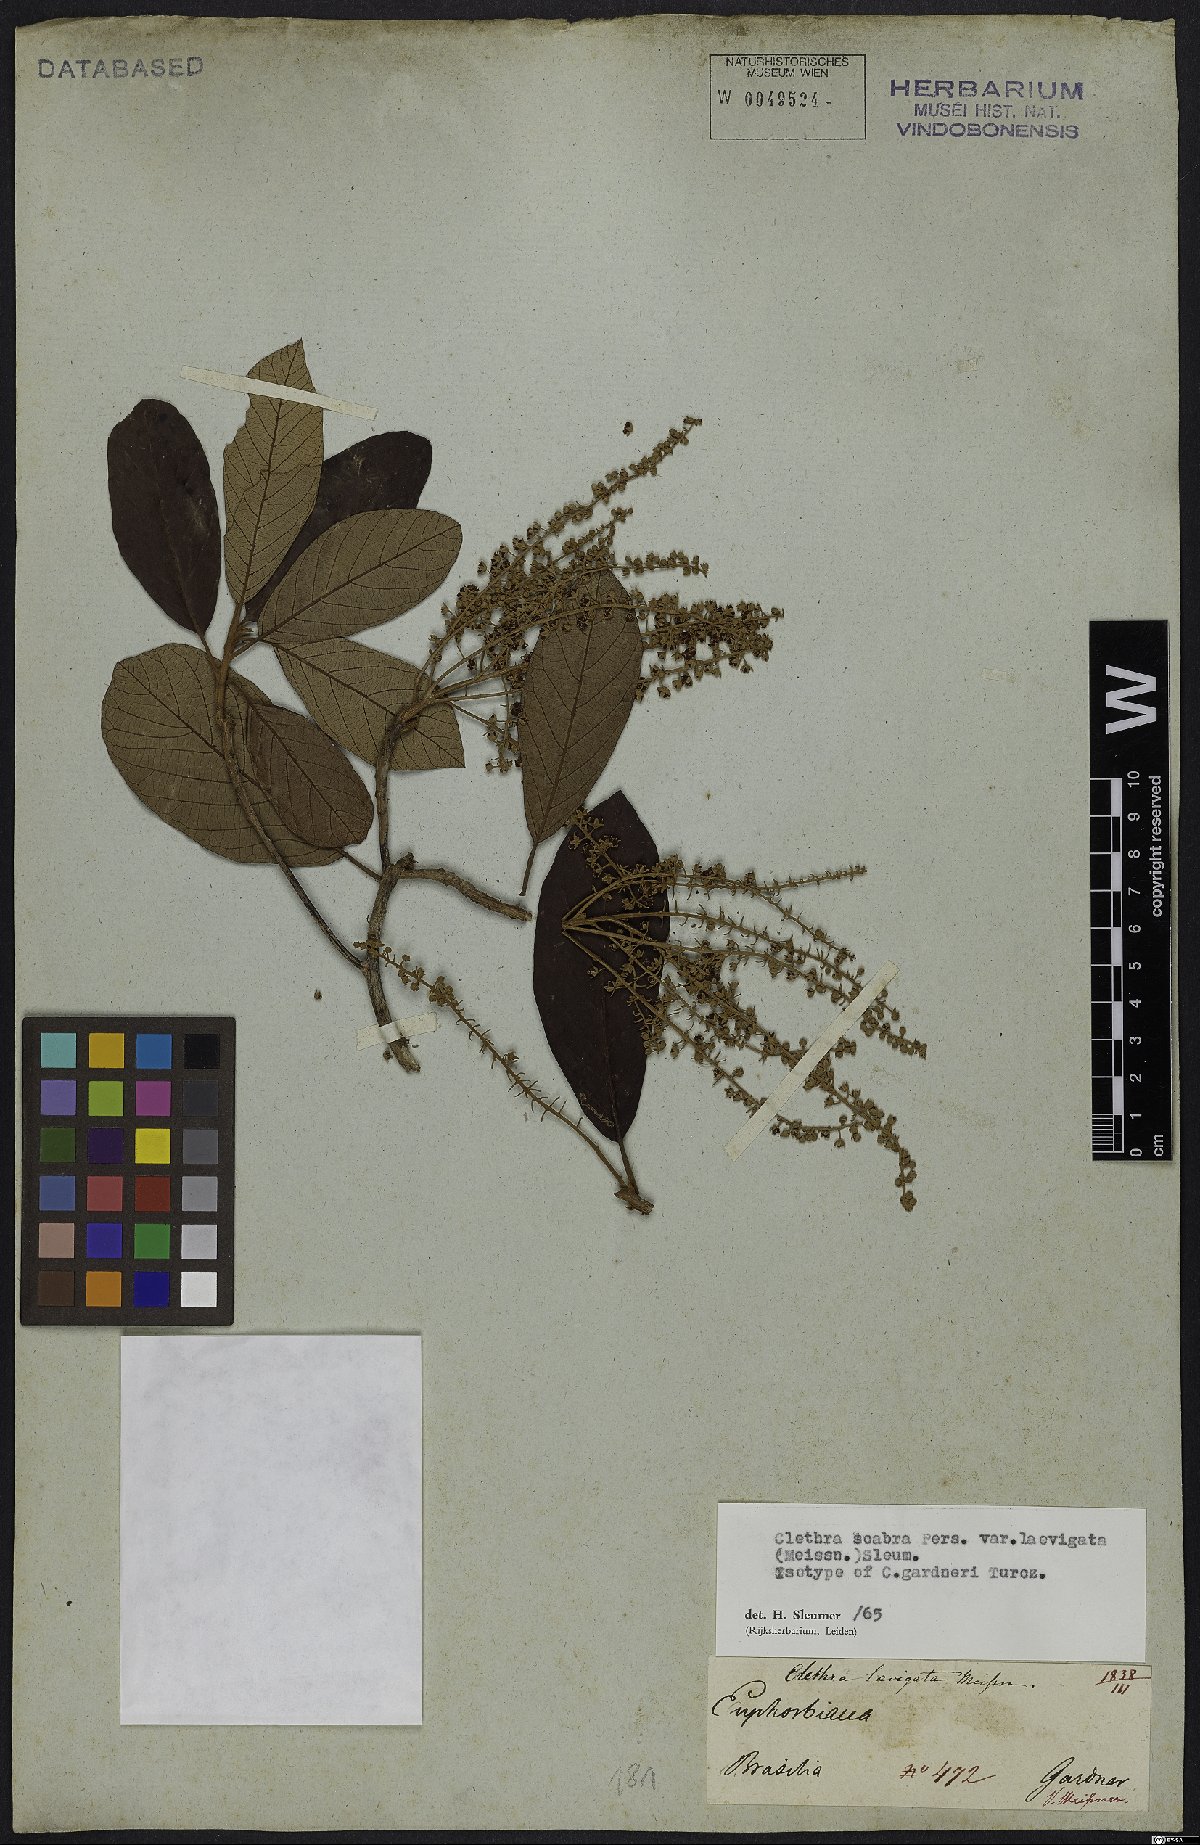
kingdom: Plantae
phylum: Tracheophyta
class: Magnoliopsida
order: Ericales
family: Clethraceae
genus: Clethra
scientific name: Clethra scabra
